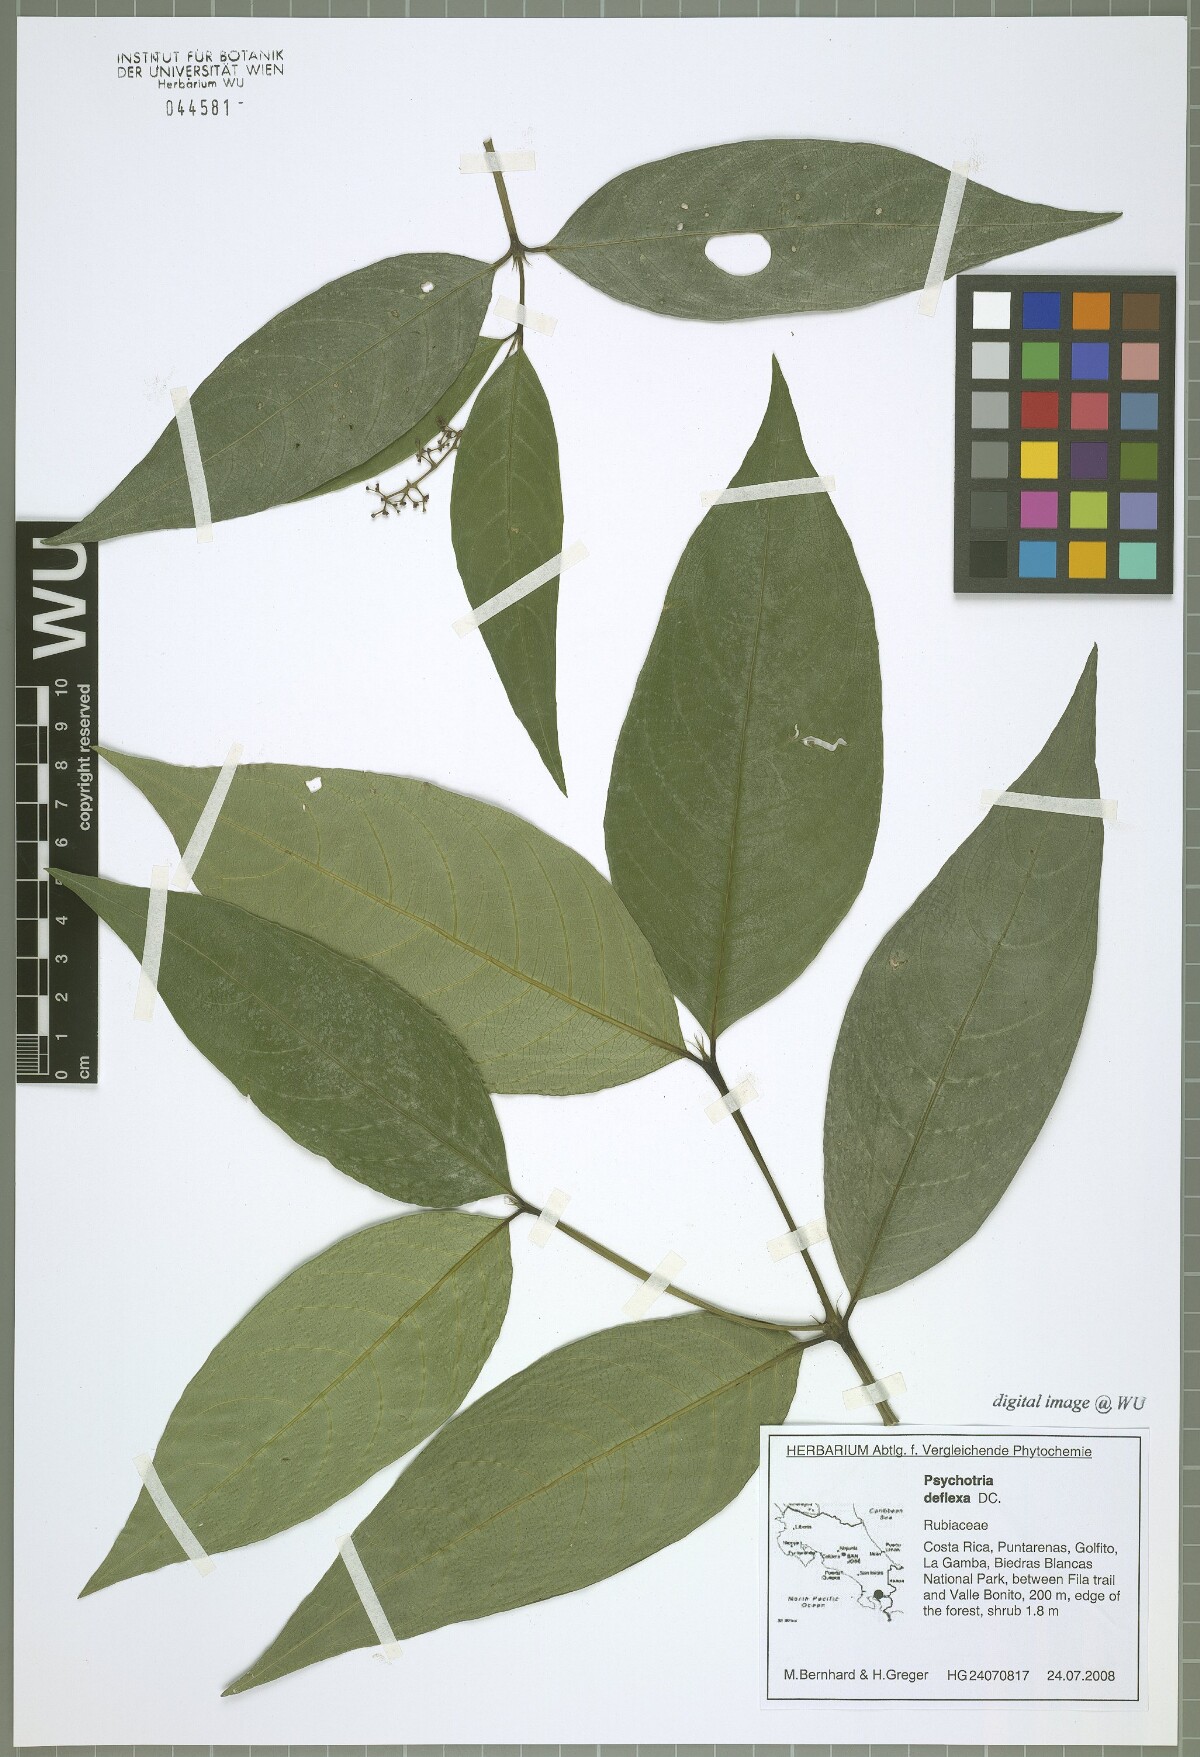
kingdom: Plantae
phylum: Tracheophyta
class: Magnoliopsida
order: Gentianales
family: Rubiaceae
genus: Palicourea
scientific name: Palicourea deflexa
